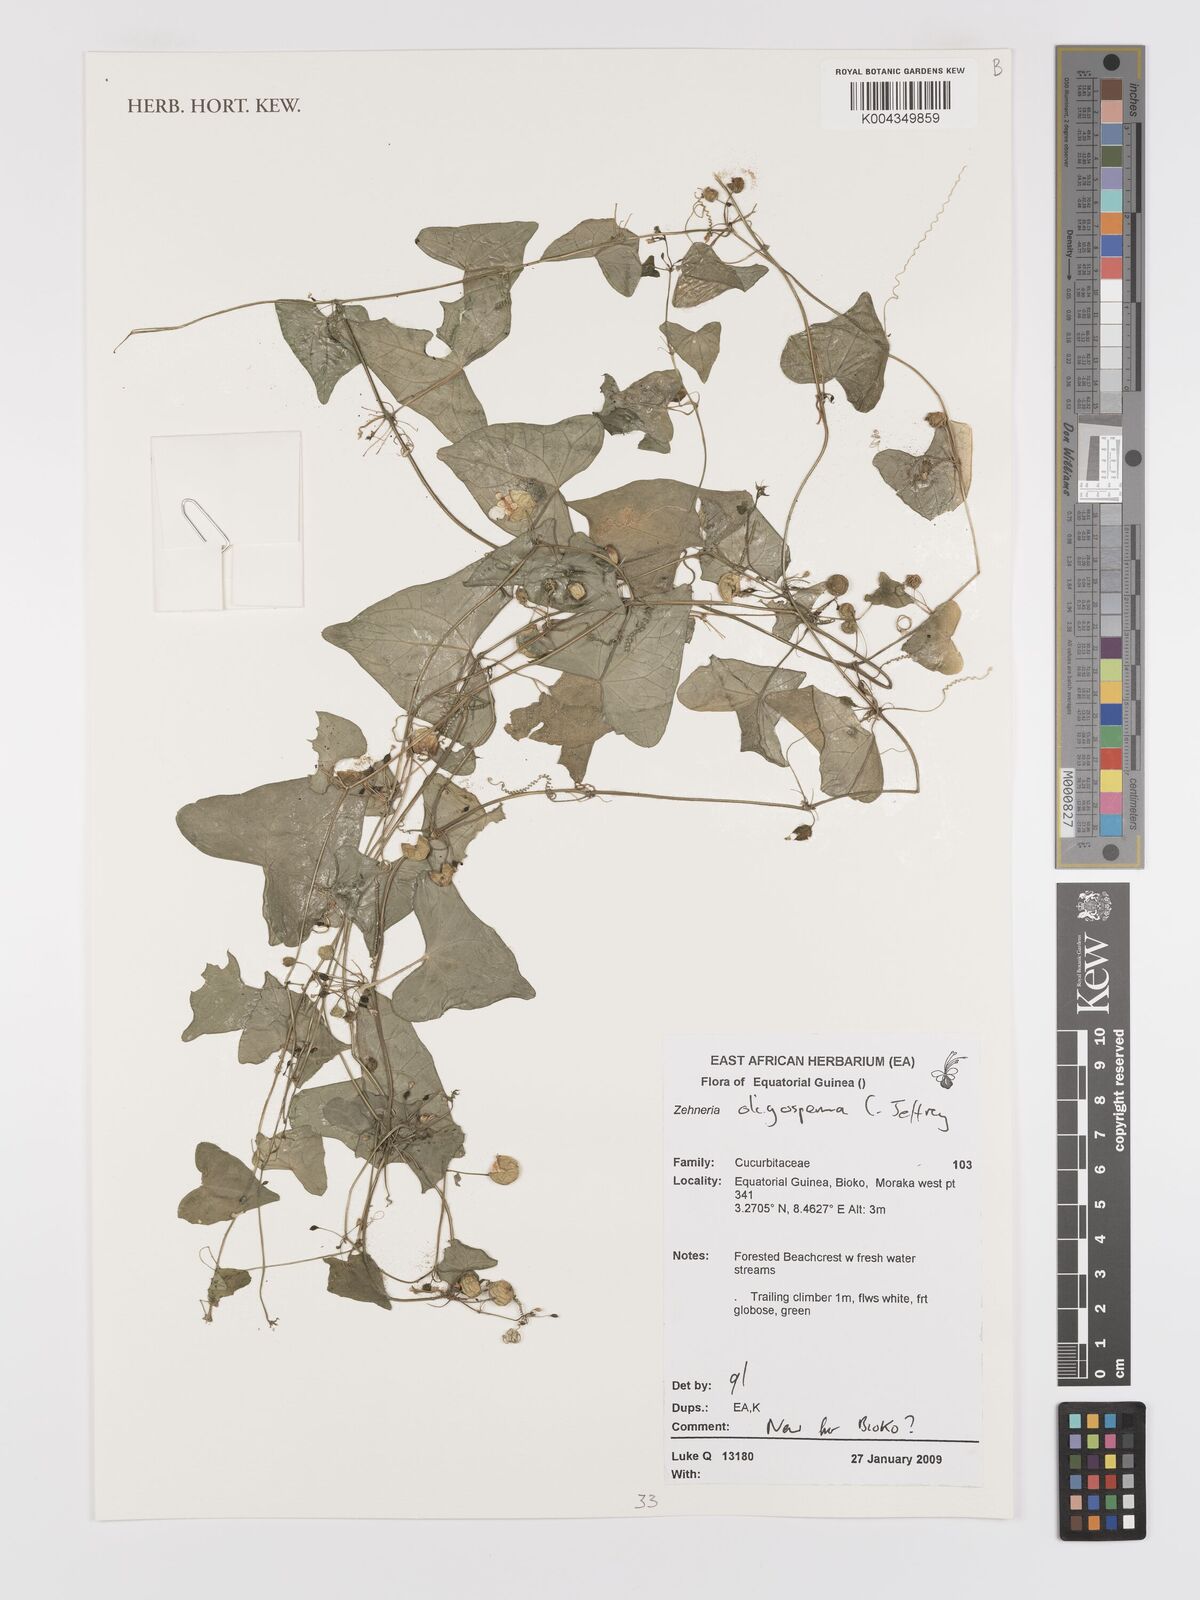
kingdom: Plantae
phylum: Tracheophyta
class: Magnoliopsida
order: Cucurbitales
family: Cucurbitaceae
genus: Zehneria
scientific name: Zehneria oligosperma
